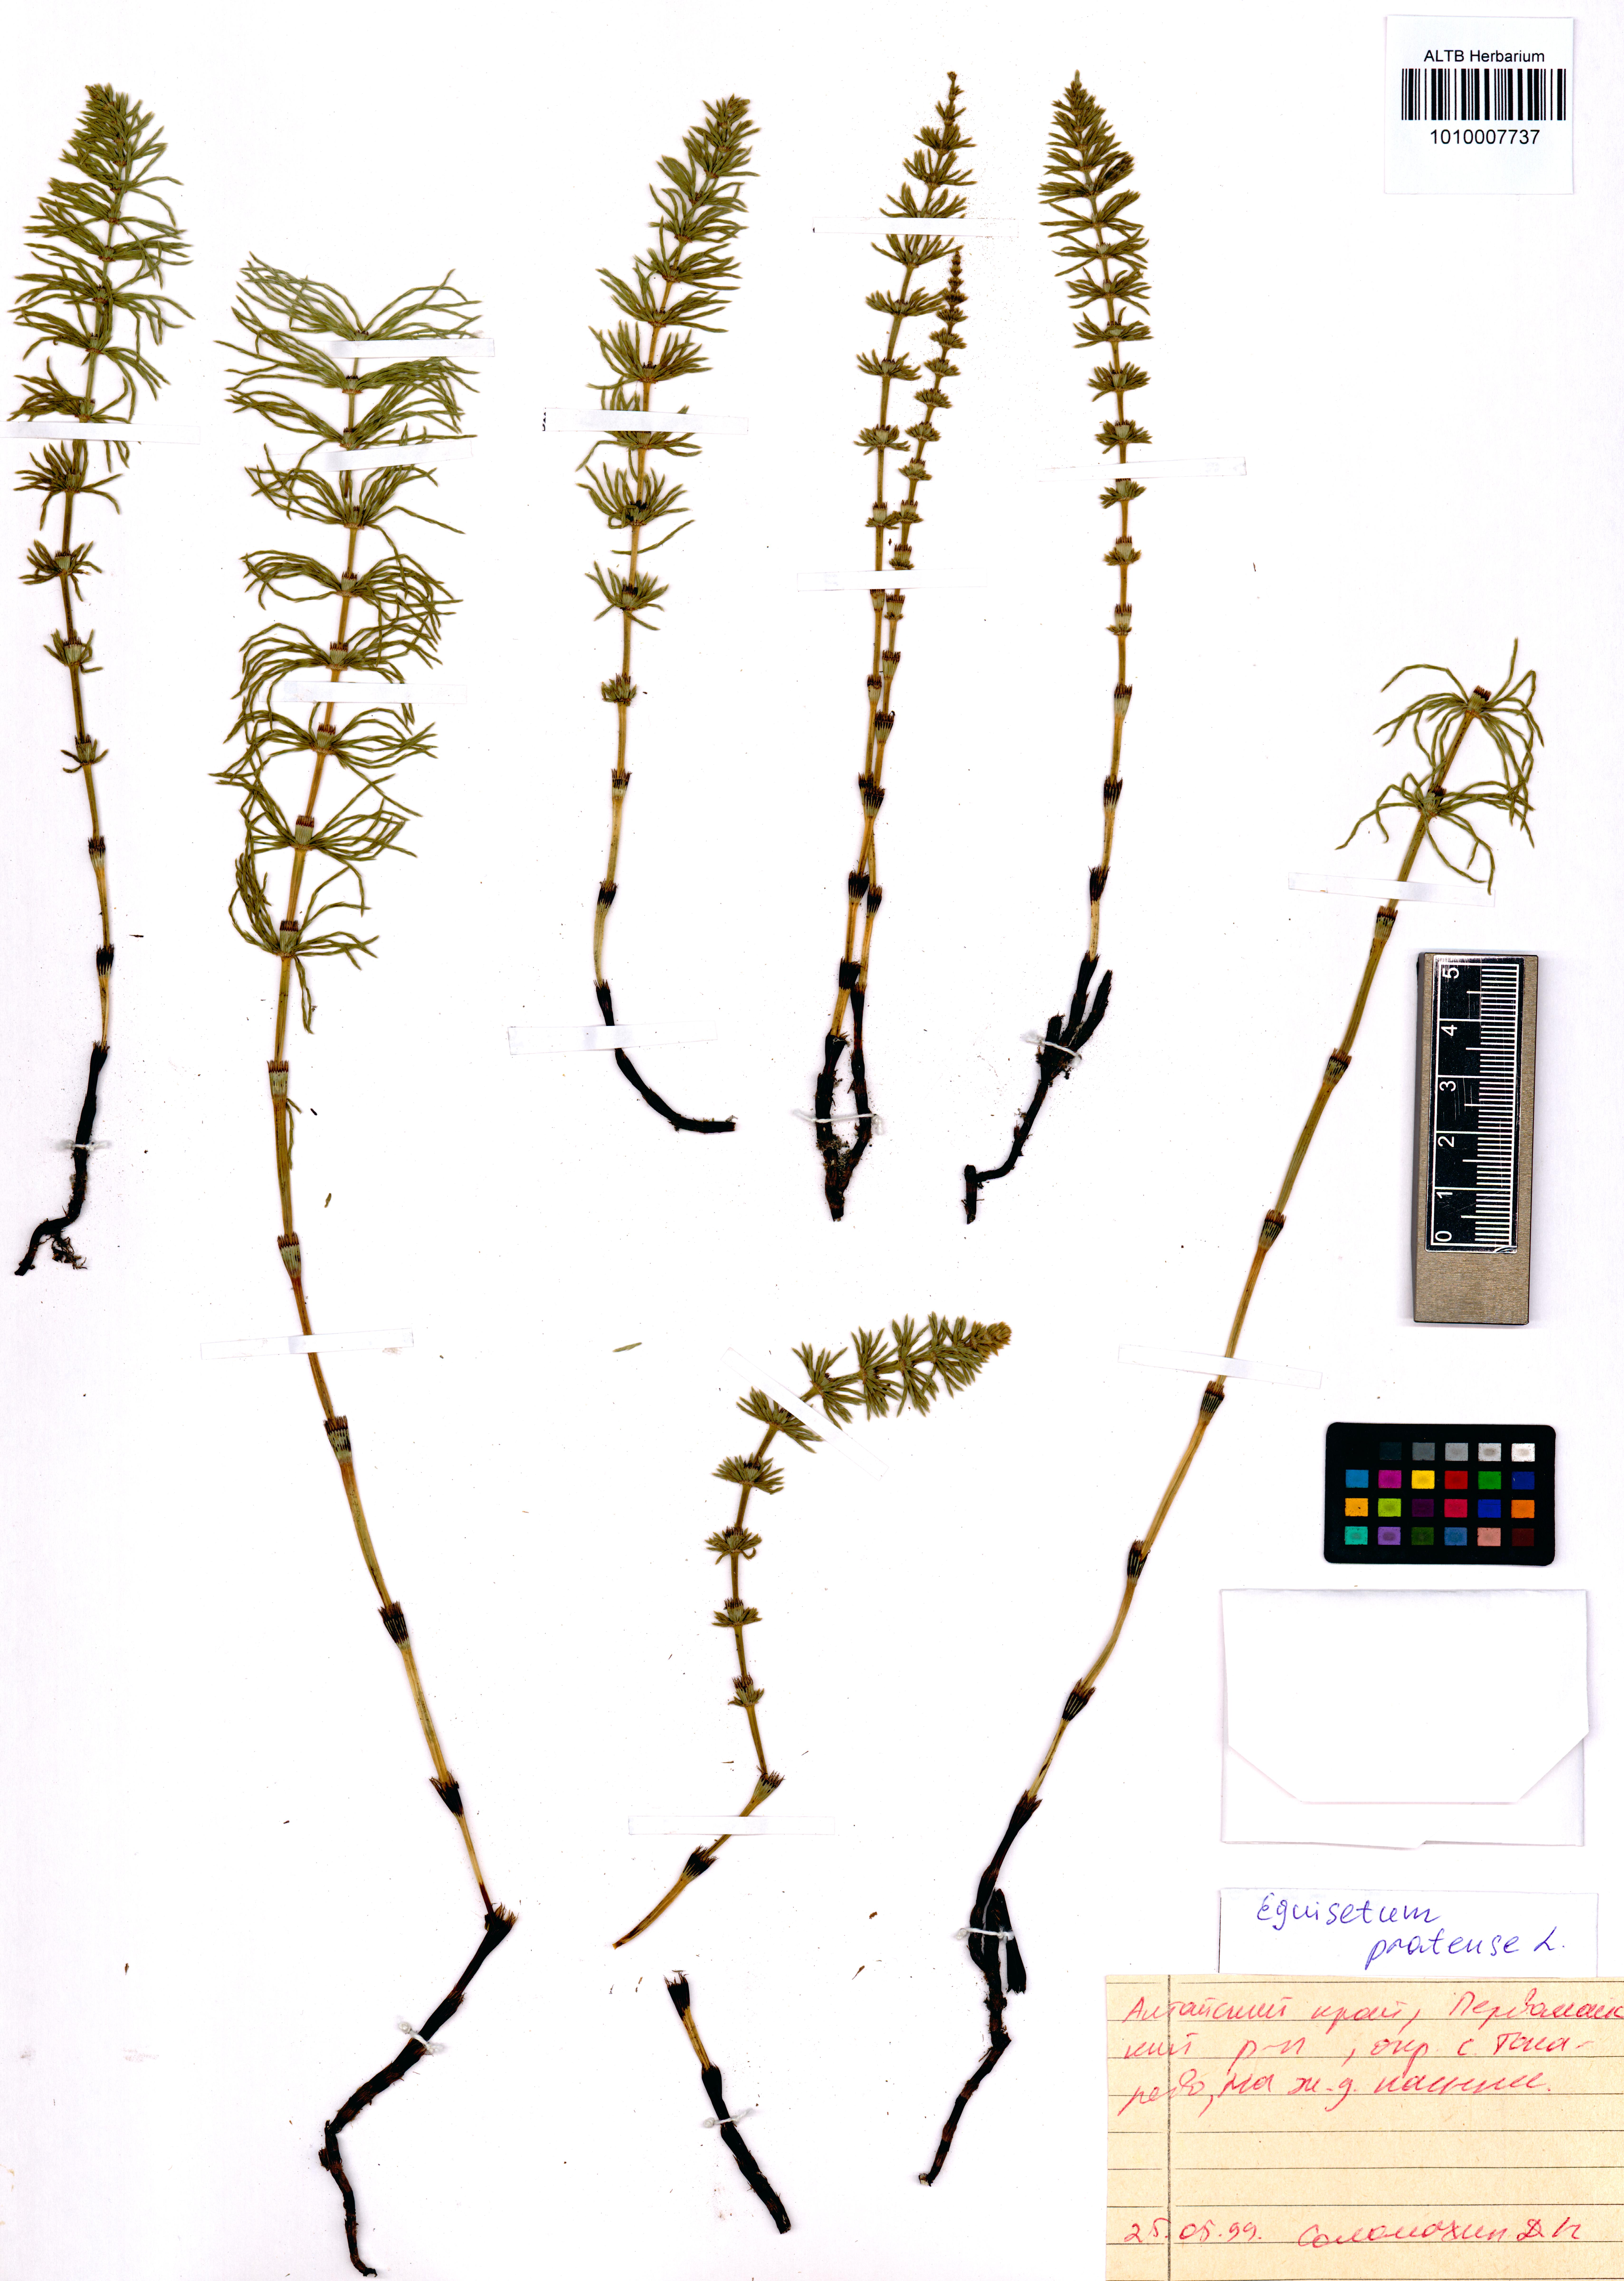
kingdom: Plantae
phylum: Tracheophyta
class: Polypodiopsida
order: Equisetales
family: Equisetaceae
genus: Equisetum
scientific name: Equisetum pratense
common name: Meadow horsetail
